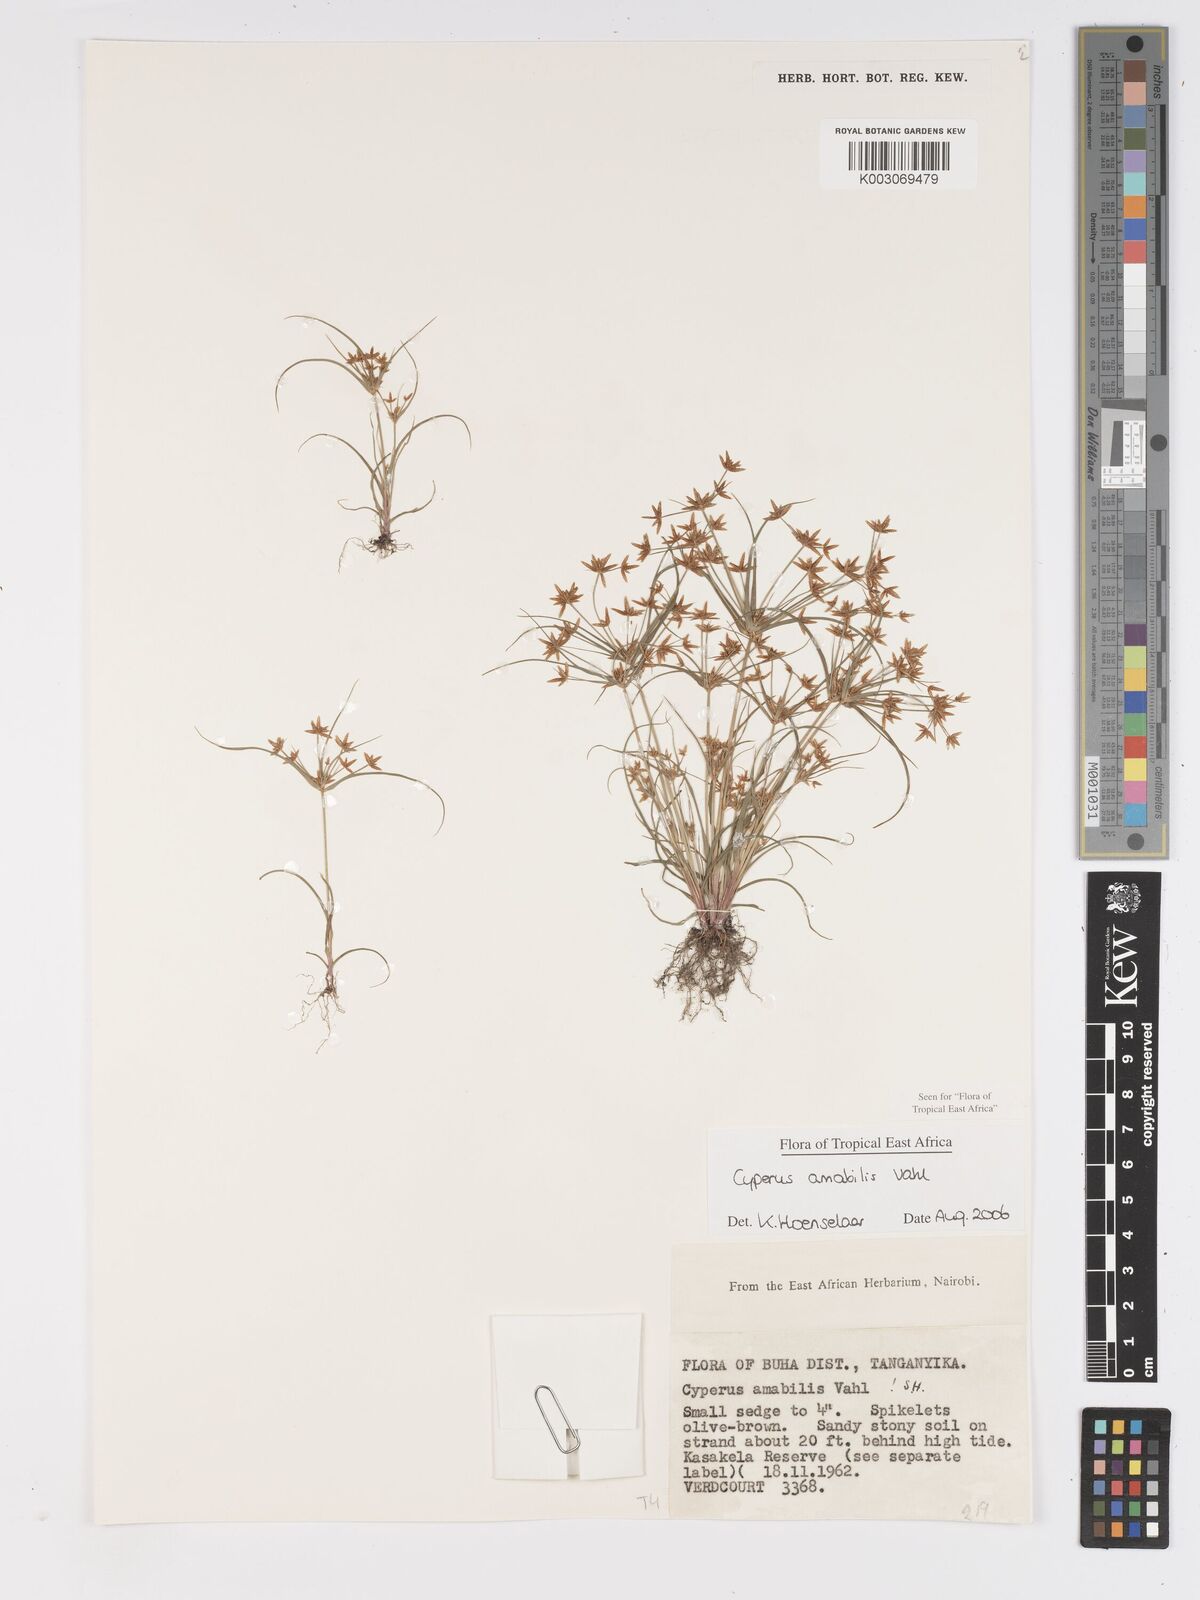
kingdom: Plantae
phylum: Tracheophyta
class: Liliopsida
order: Poales
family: Cyperaceae
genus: Cyperus
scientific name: Cyperus amabilis
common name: Foothill flat sedge
